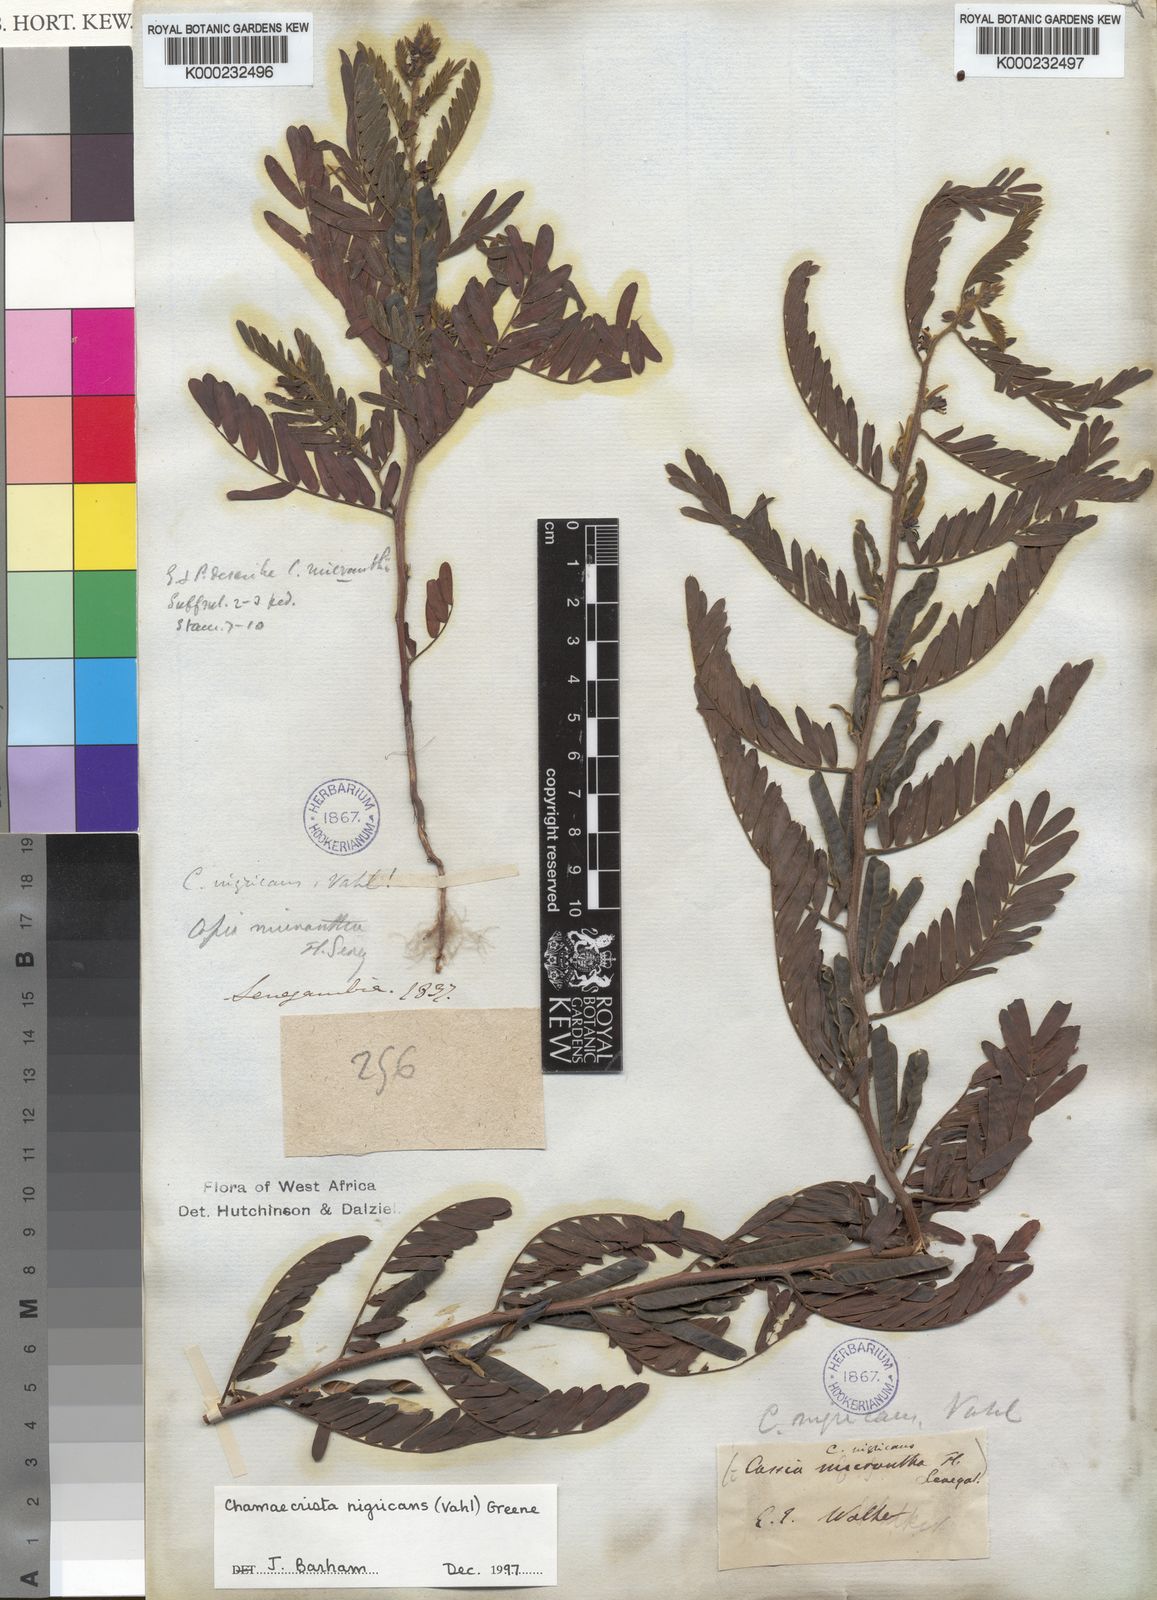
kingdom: Plantae
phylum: Tracheophyta
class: Magnoliopsida
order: Fabales
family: Fabaceae
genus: Chamaecrista
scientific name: Chamaecrista nigricans
